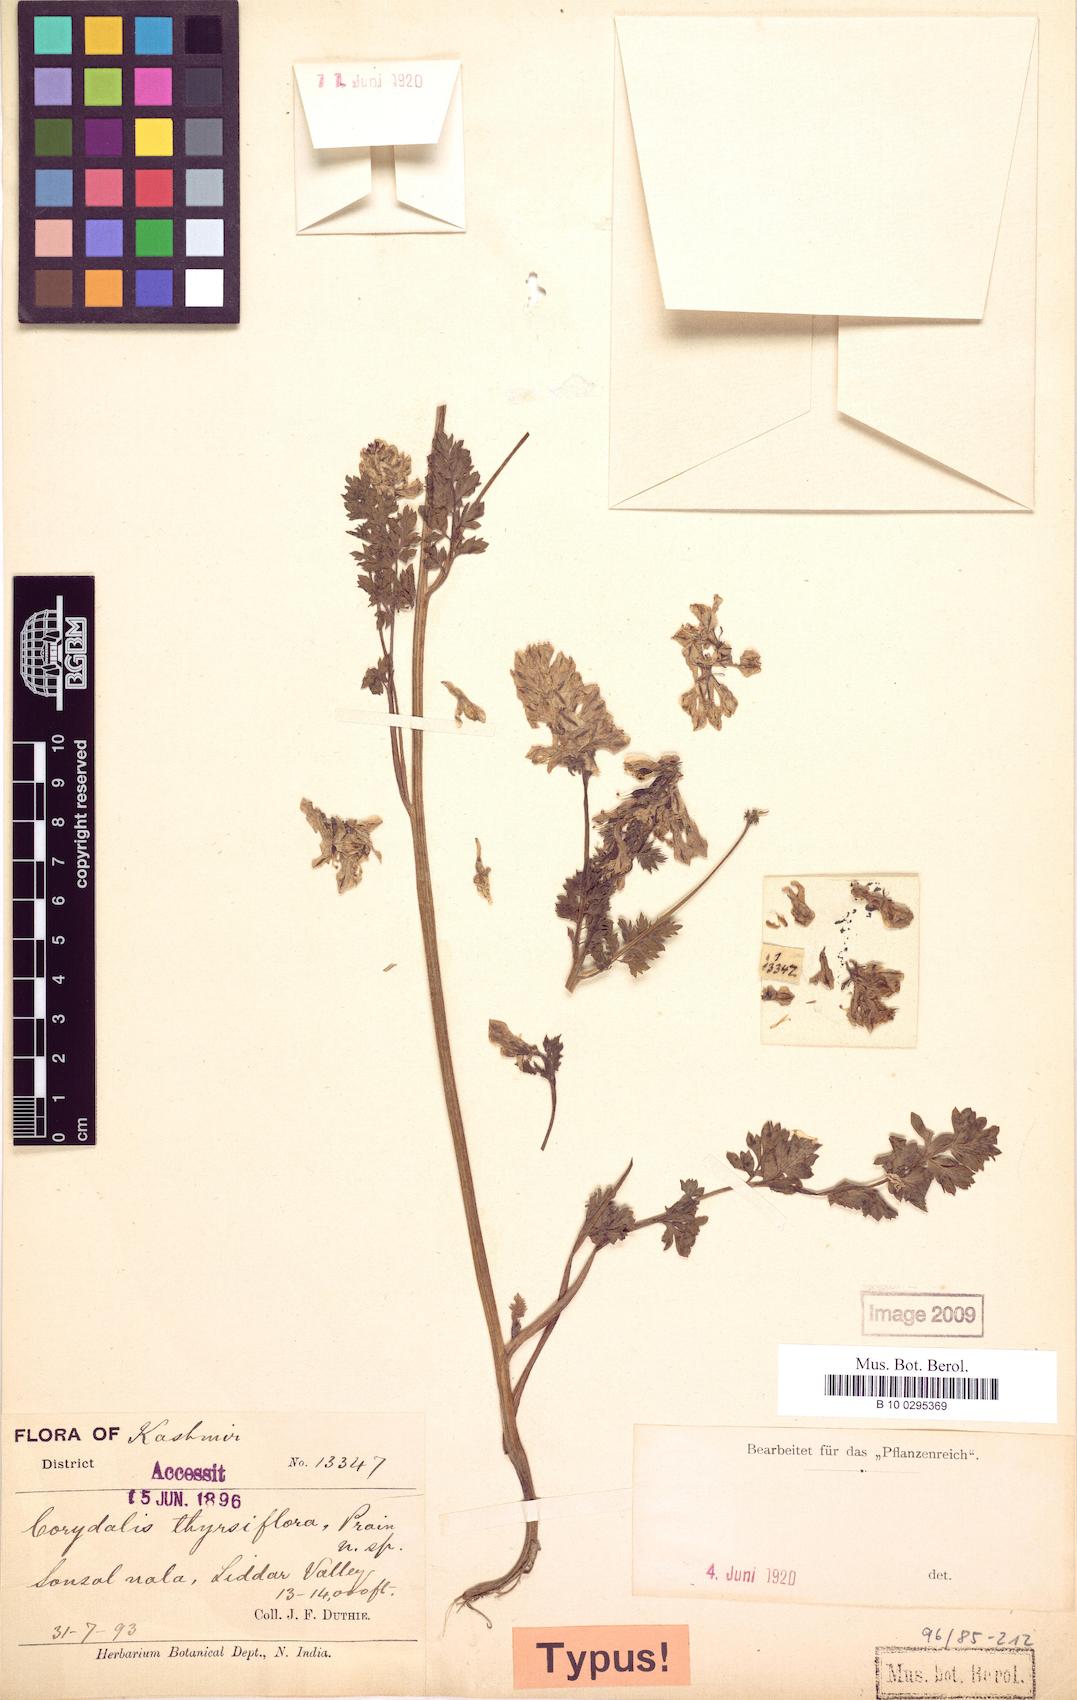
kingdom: Plantae
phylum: Tracheophyta
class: Magnoliopsida
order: Ranunculales
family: Papaveraceae
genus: Corydalis
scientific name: Corydalis thyrsiflora
